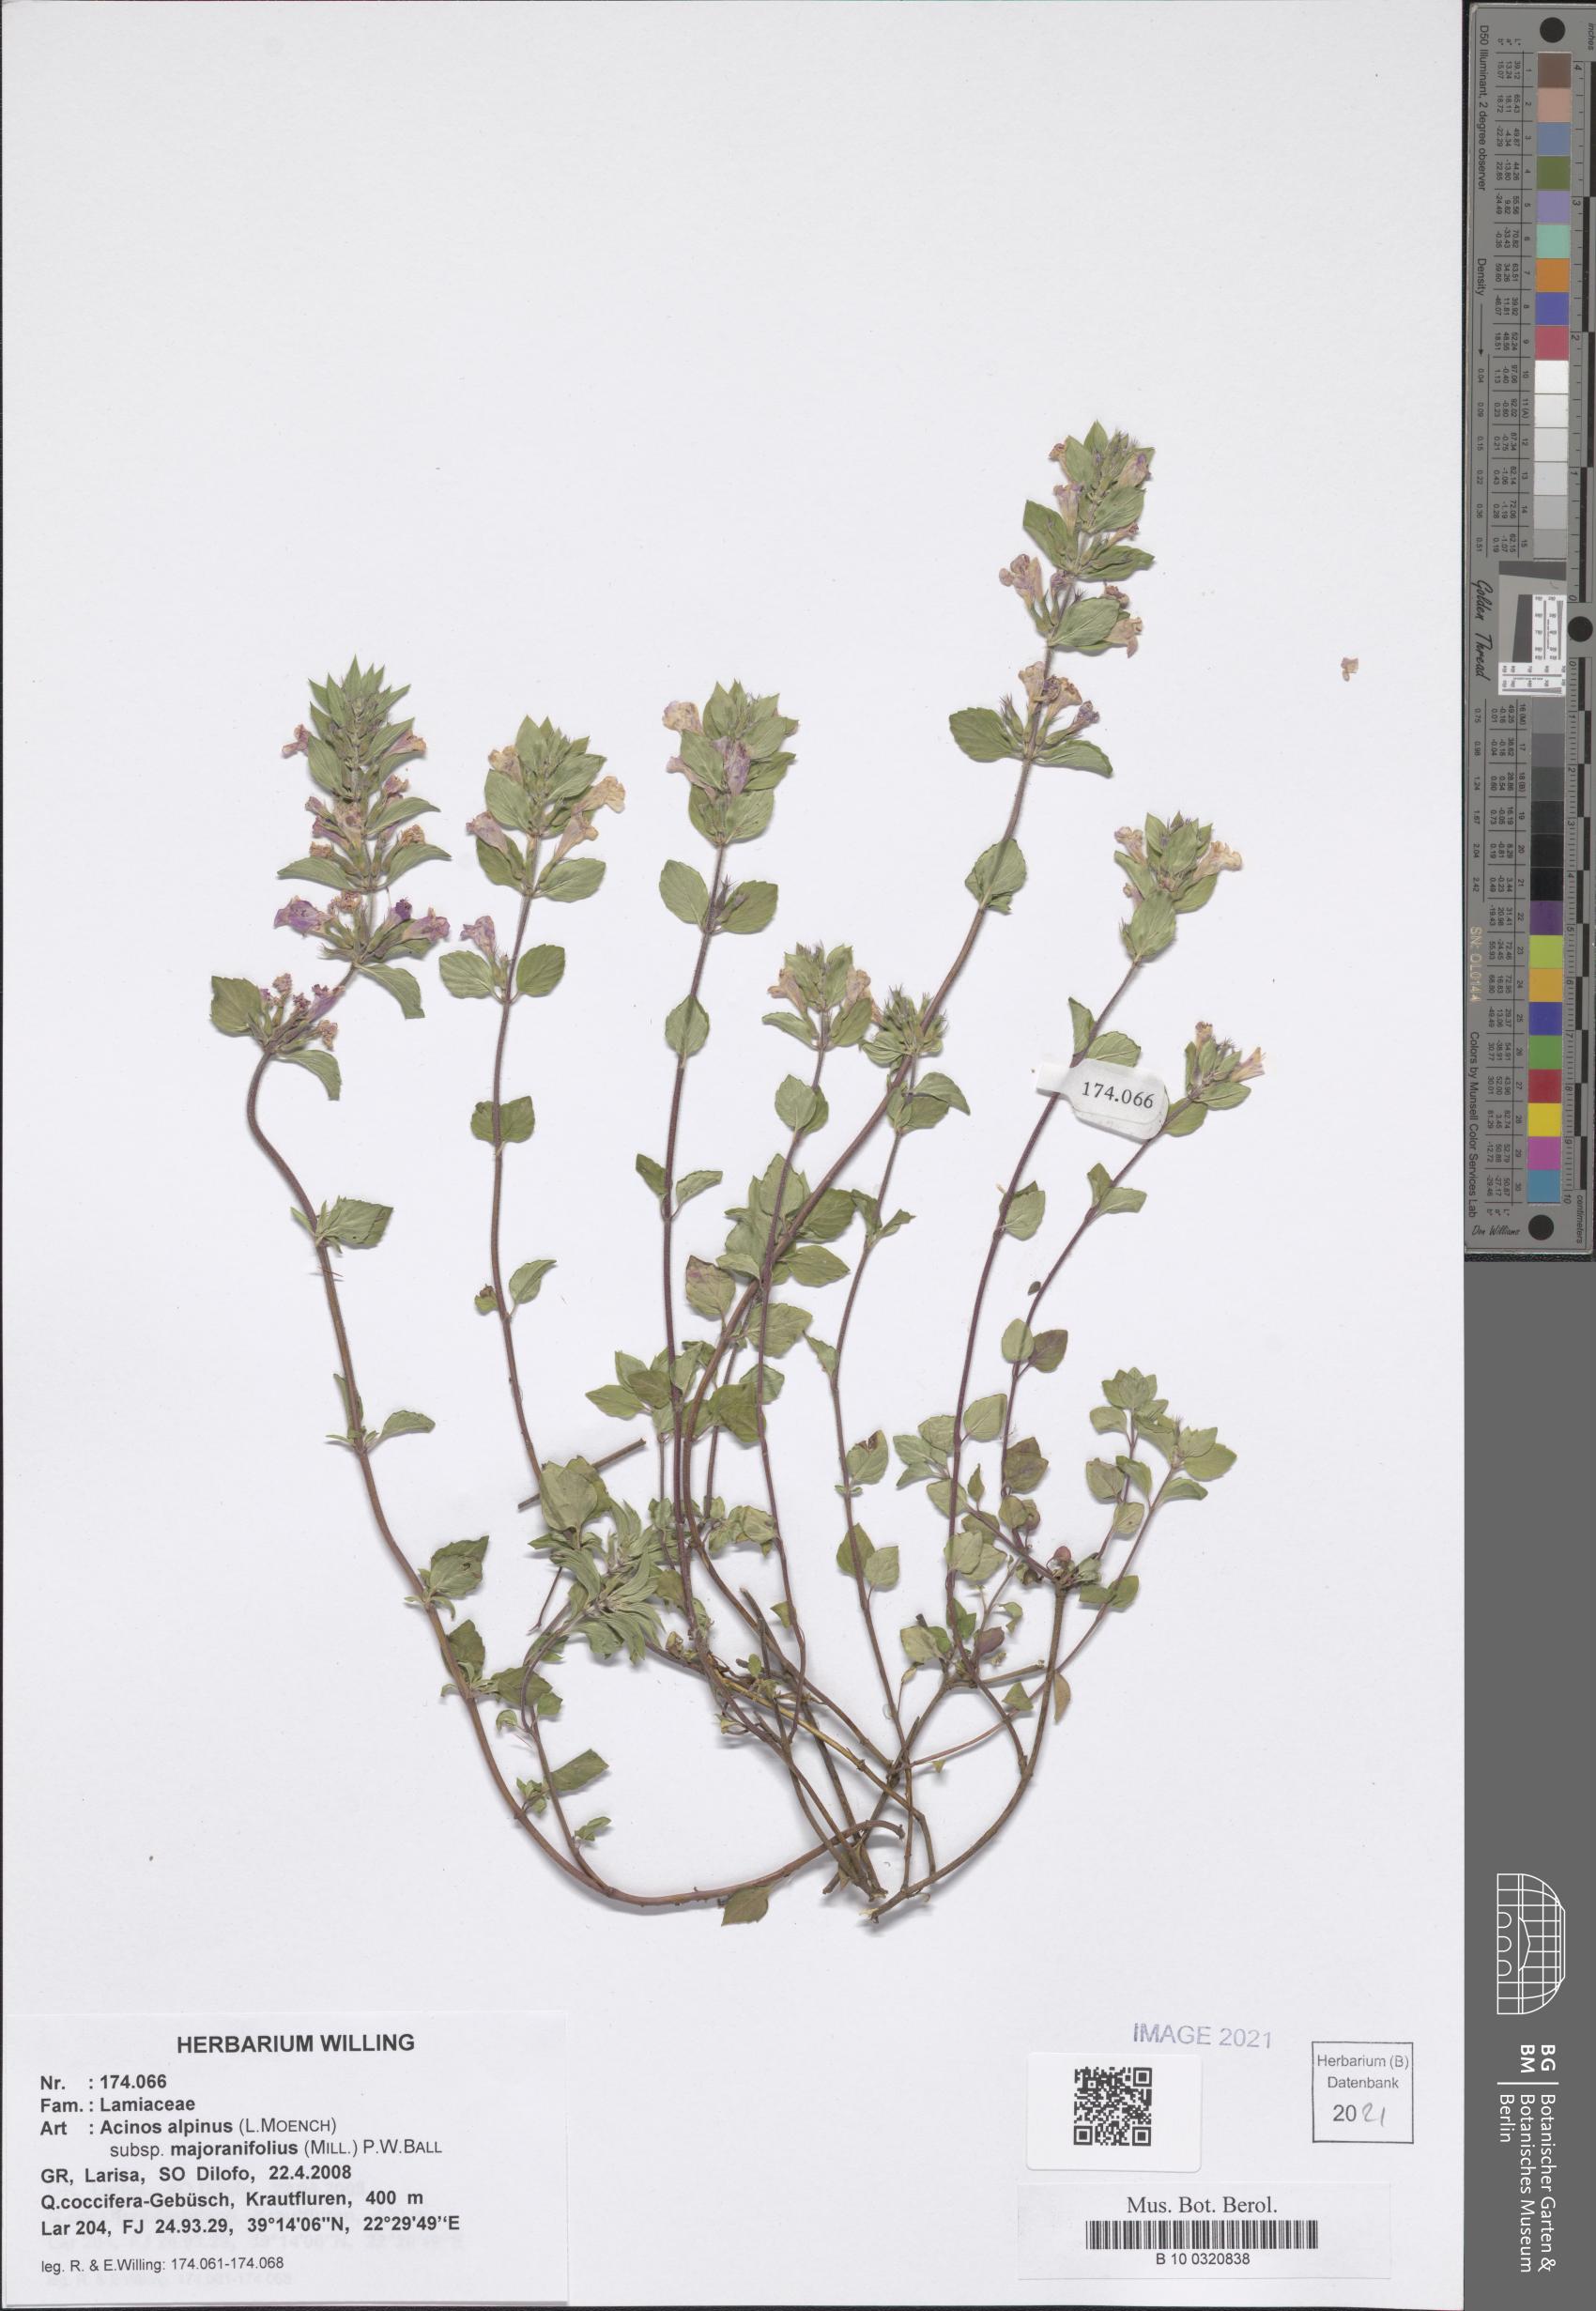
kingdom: Plantae
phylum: Tracheophyta
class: Magnoliopsida
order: Lamiales
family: Lamiaceae
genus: Clinopodium
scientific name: Clinopodium alpinum
